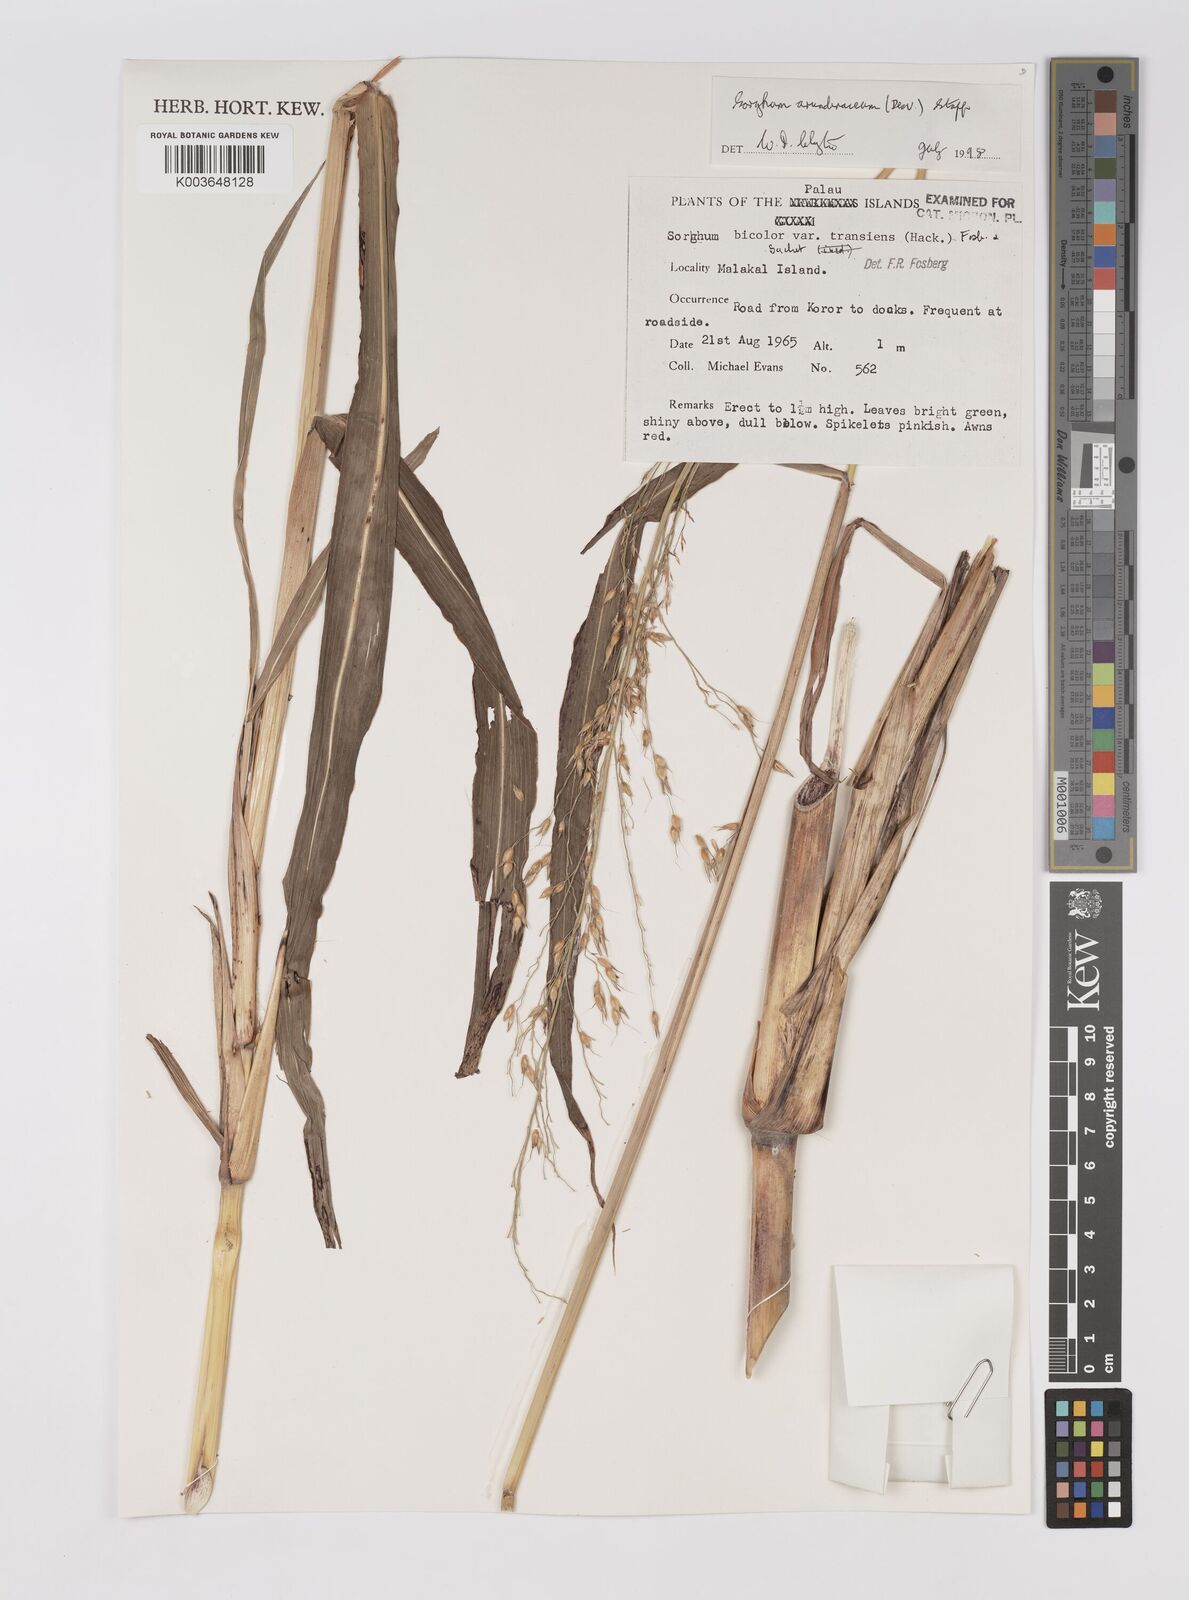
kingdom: Plantae
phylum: Tracheophyta
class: Liliopsida
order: Poales
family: Poaceae
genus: Sorghum
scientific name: Sorghum arundinaceum
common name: Sorghum
